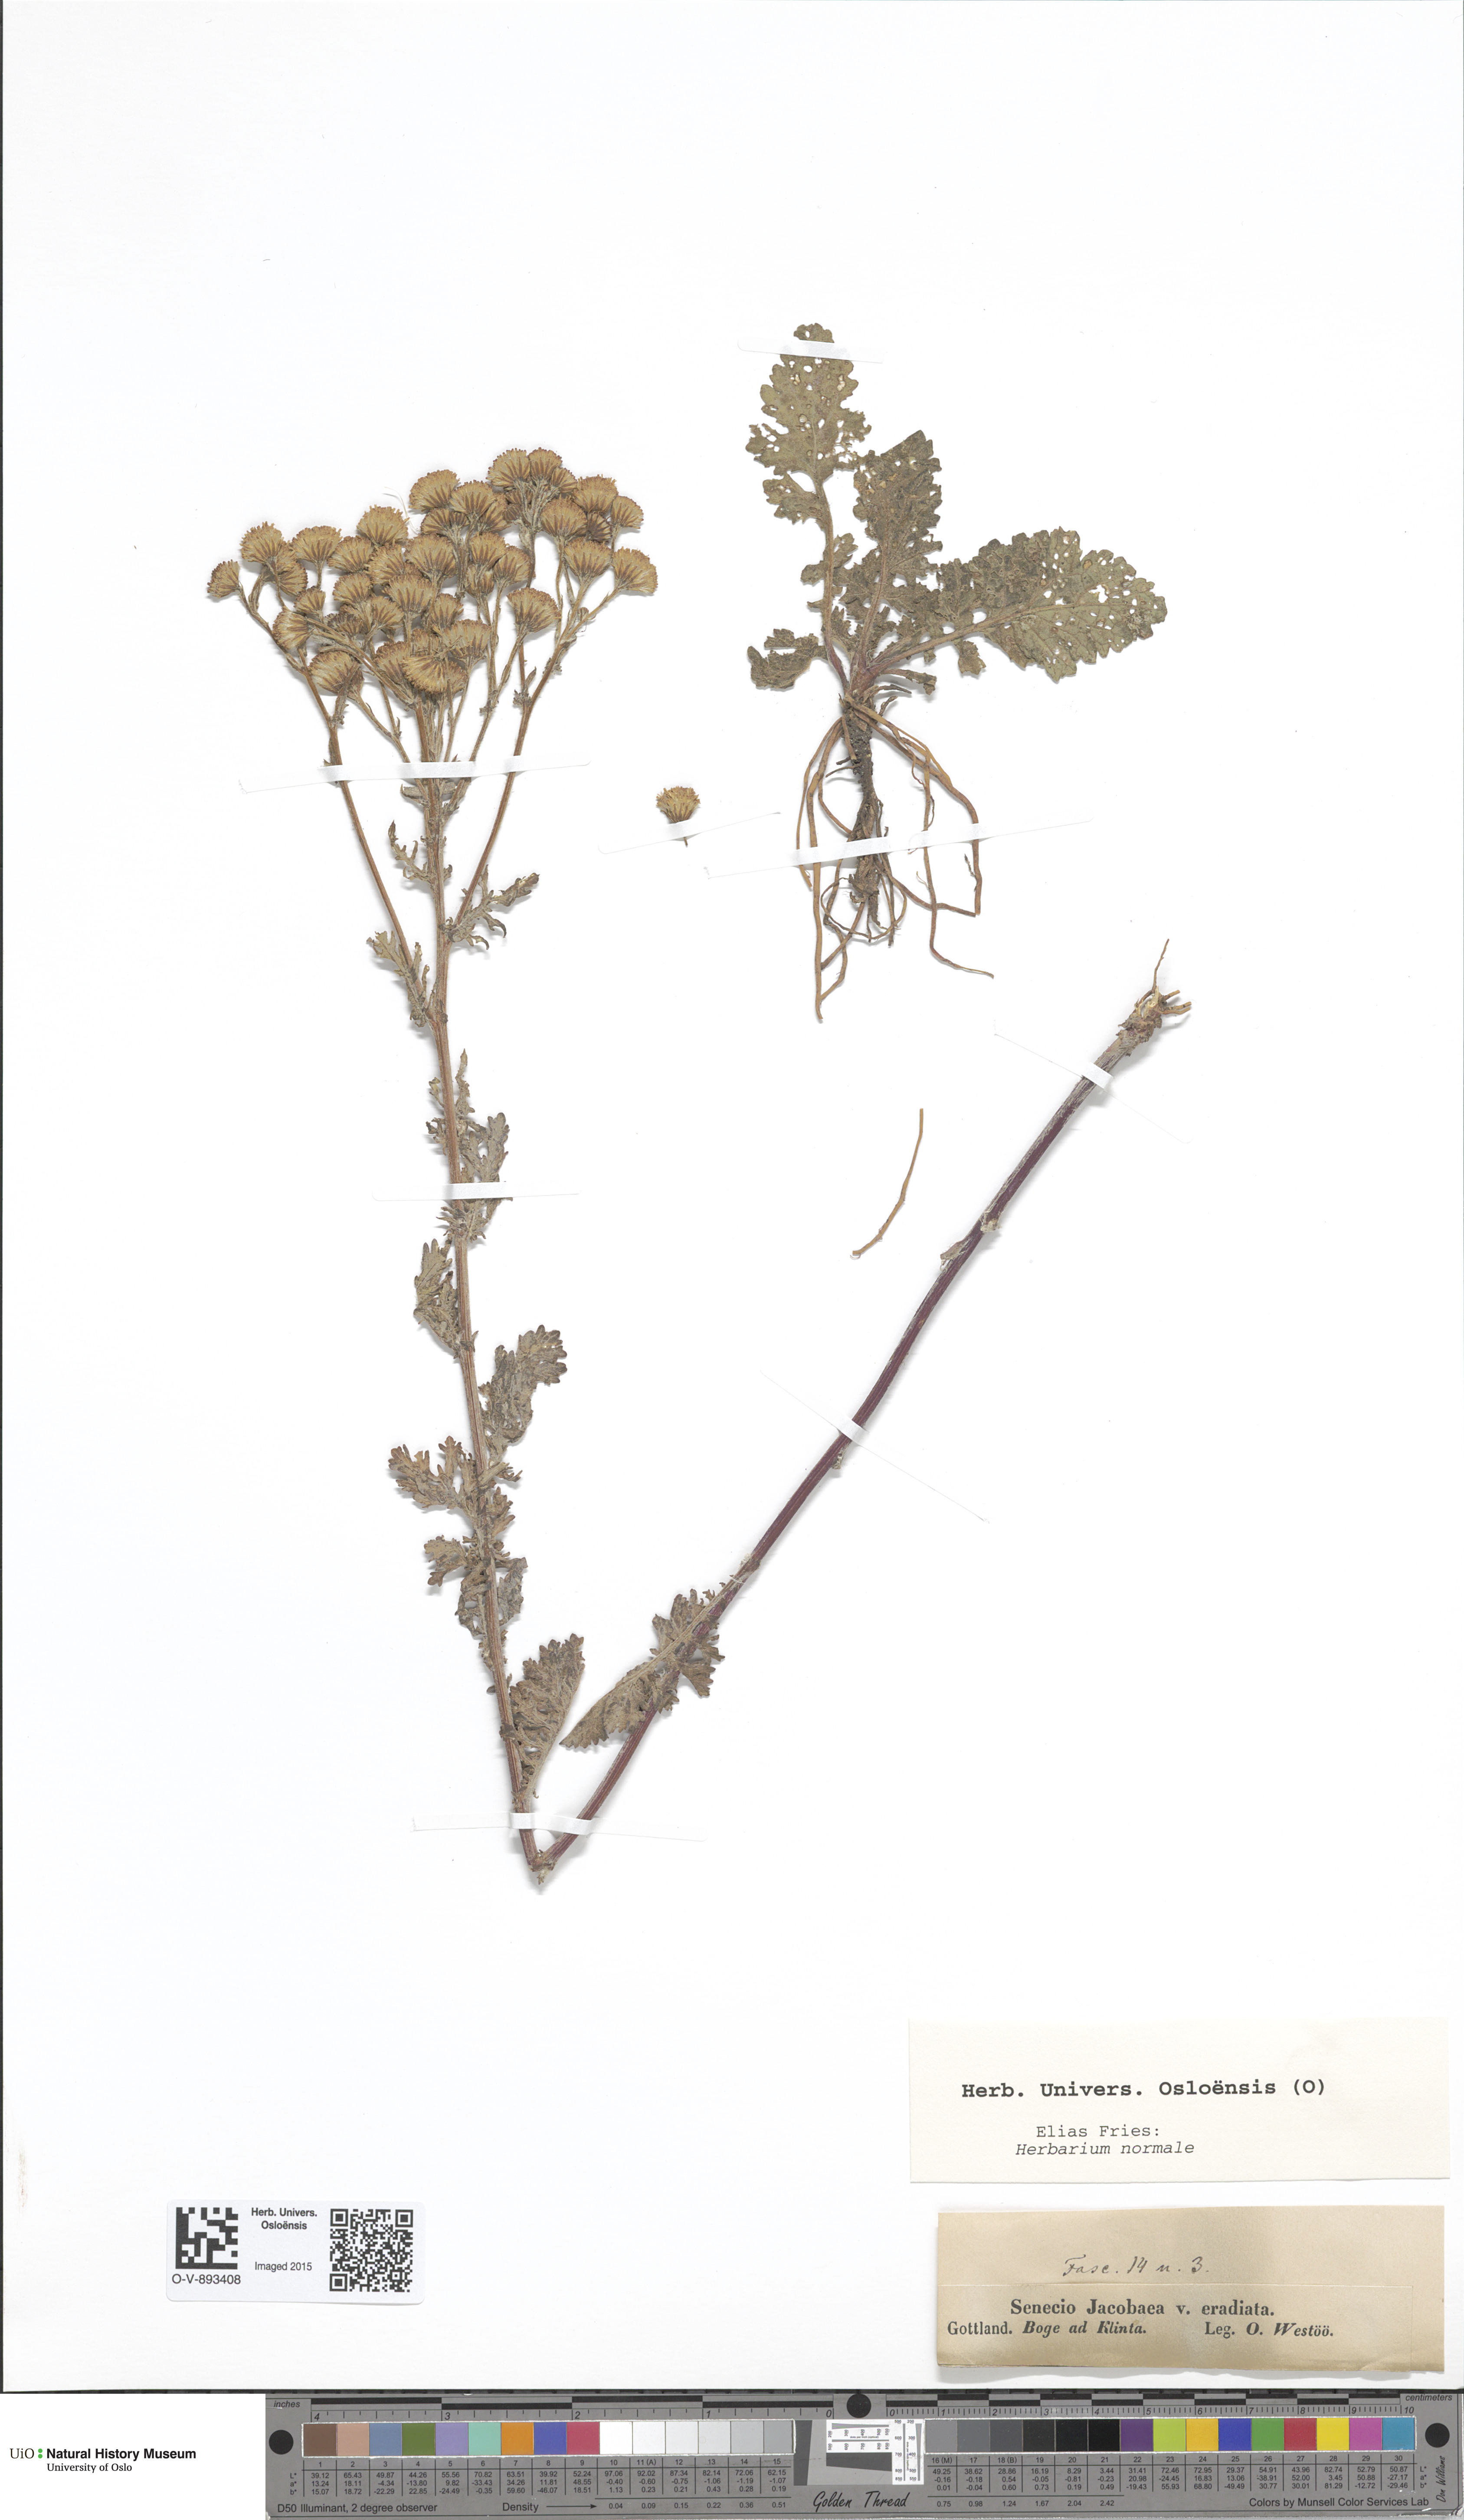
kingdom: Plantae
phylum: Tracheophyta
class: Magnoliopsida
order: Asterales
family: Asteraceae
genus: Jacobaea
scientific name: Jacobaea vulgaris
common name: Stinking willie
